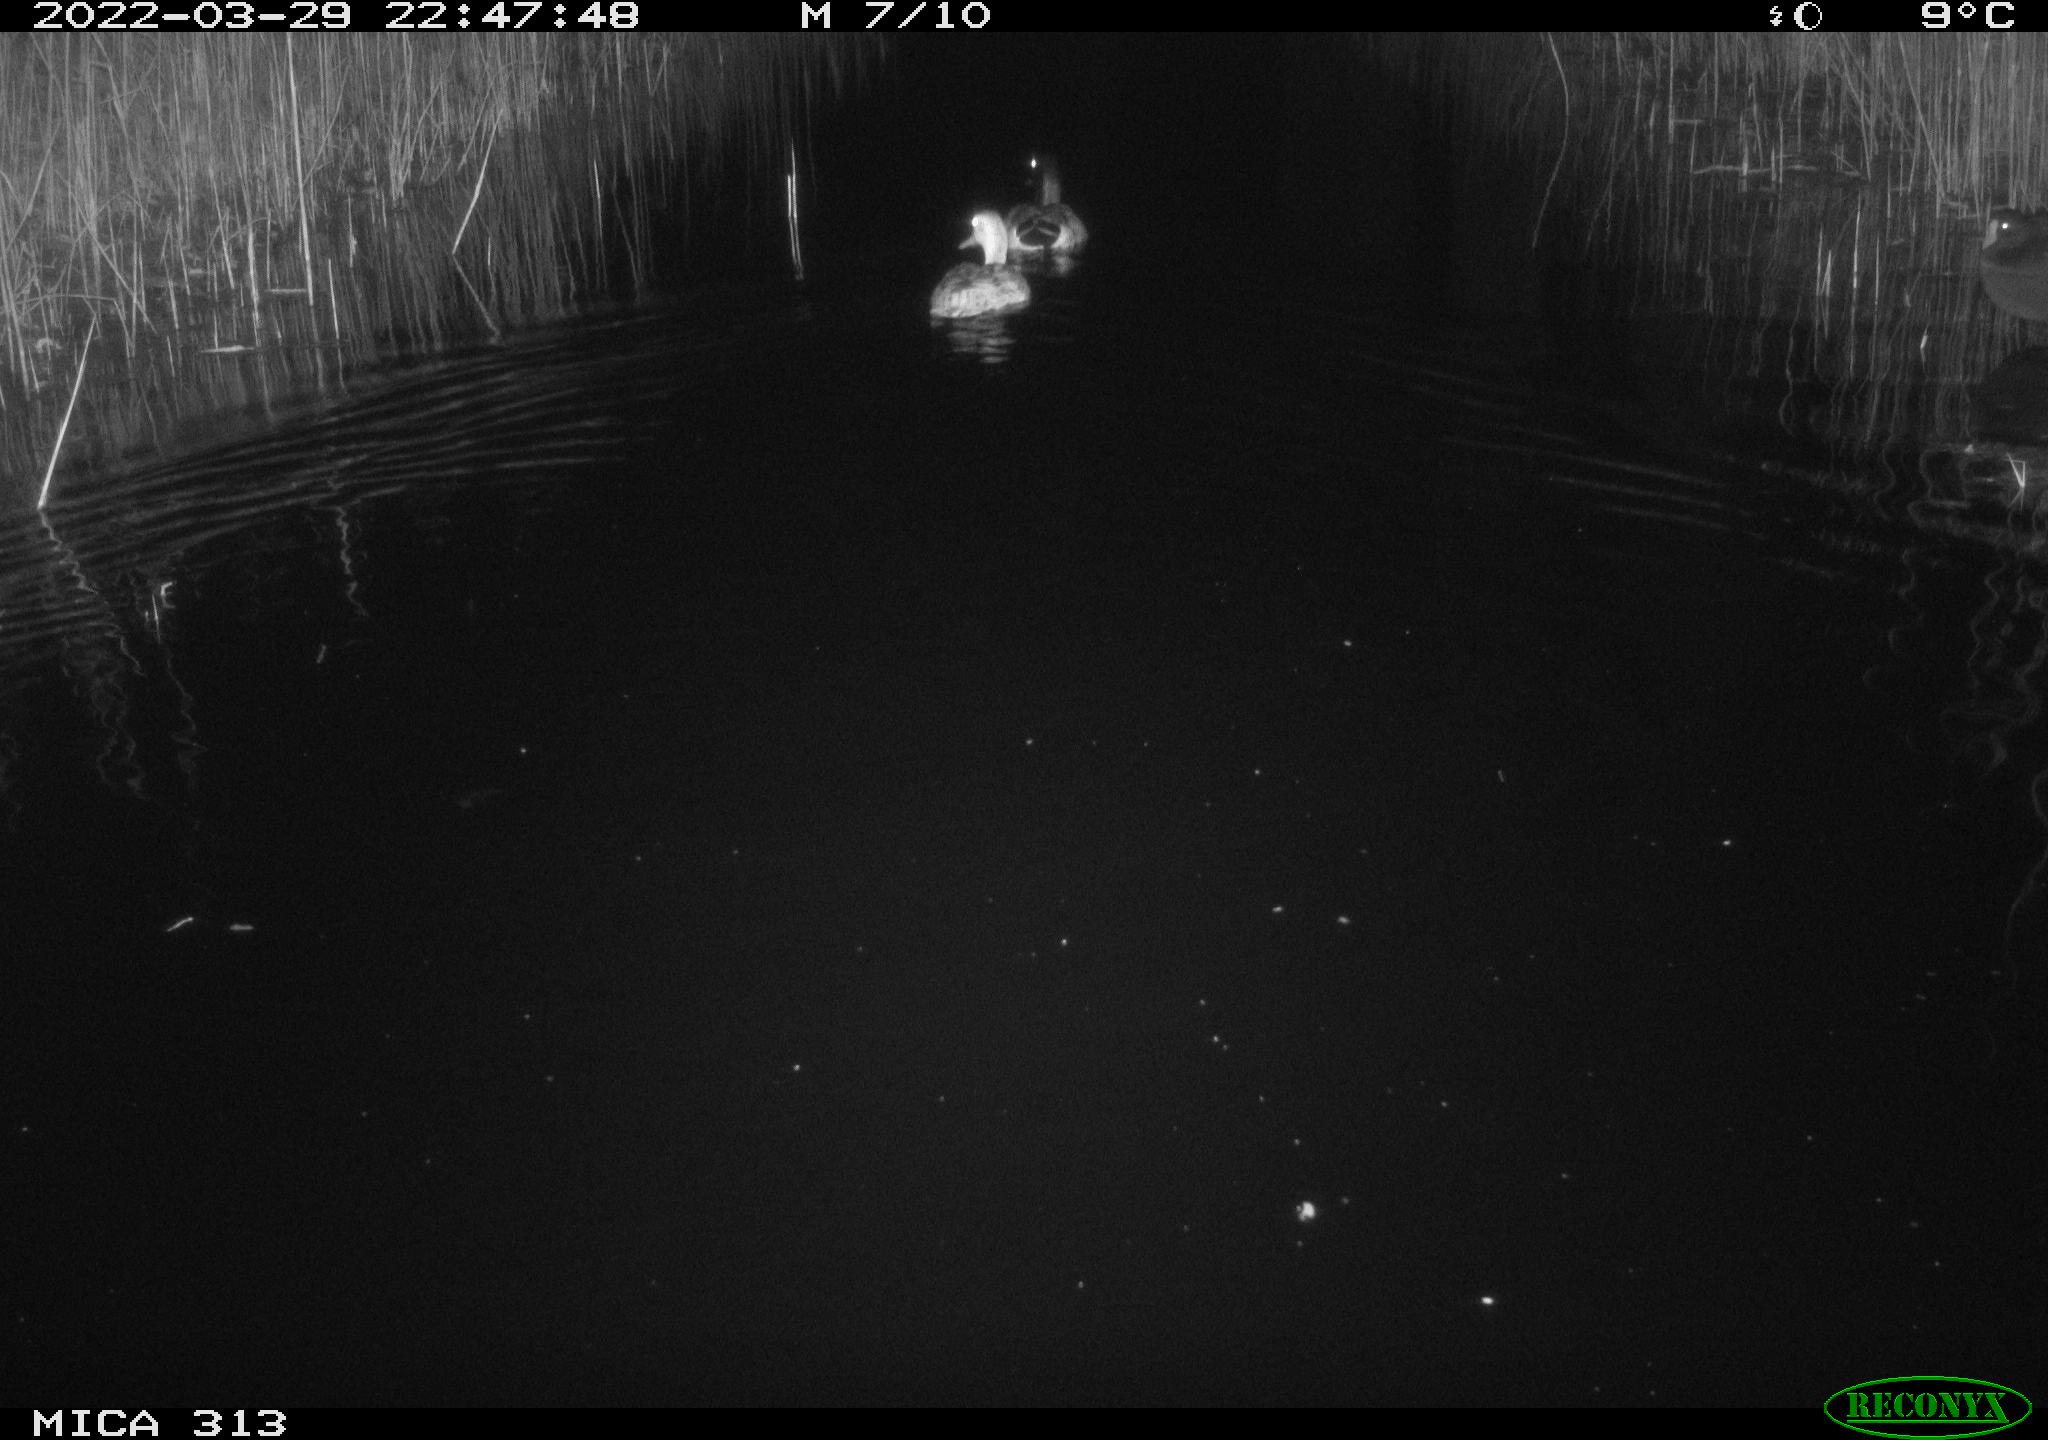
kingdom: Animalia
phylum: Chordata
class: Aves
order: Anseriformes
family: Anatidae
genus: Anas
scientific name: Anas platyrhynchos
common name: Mallard
